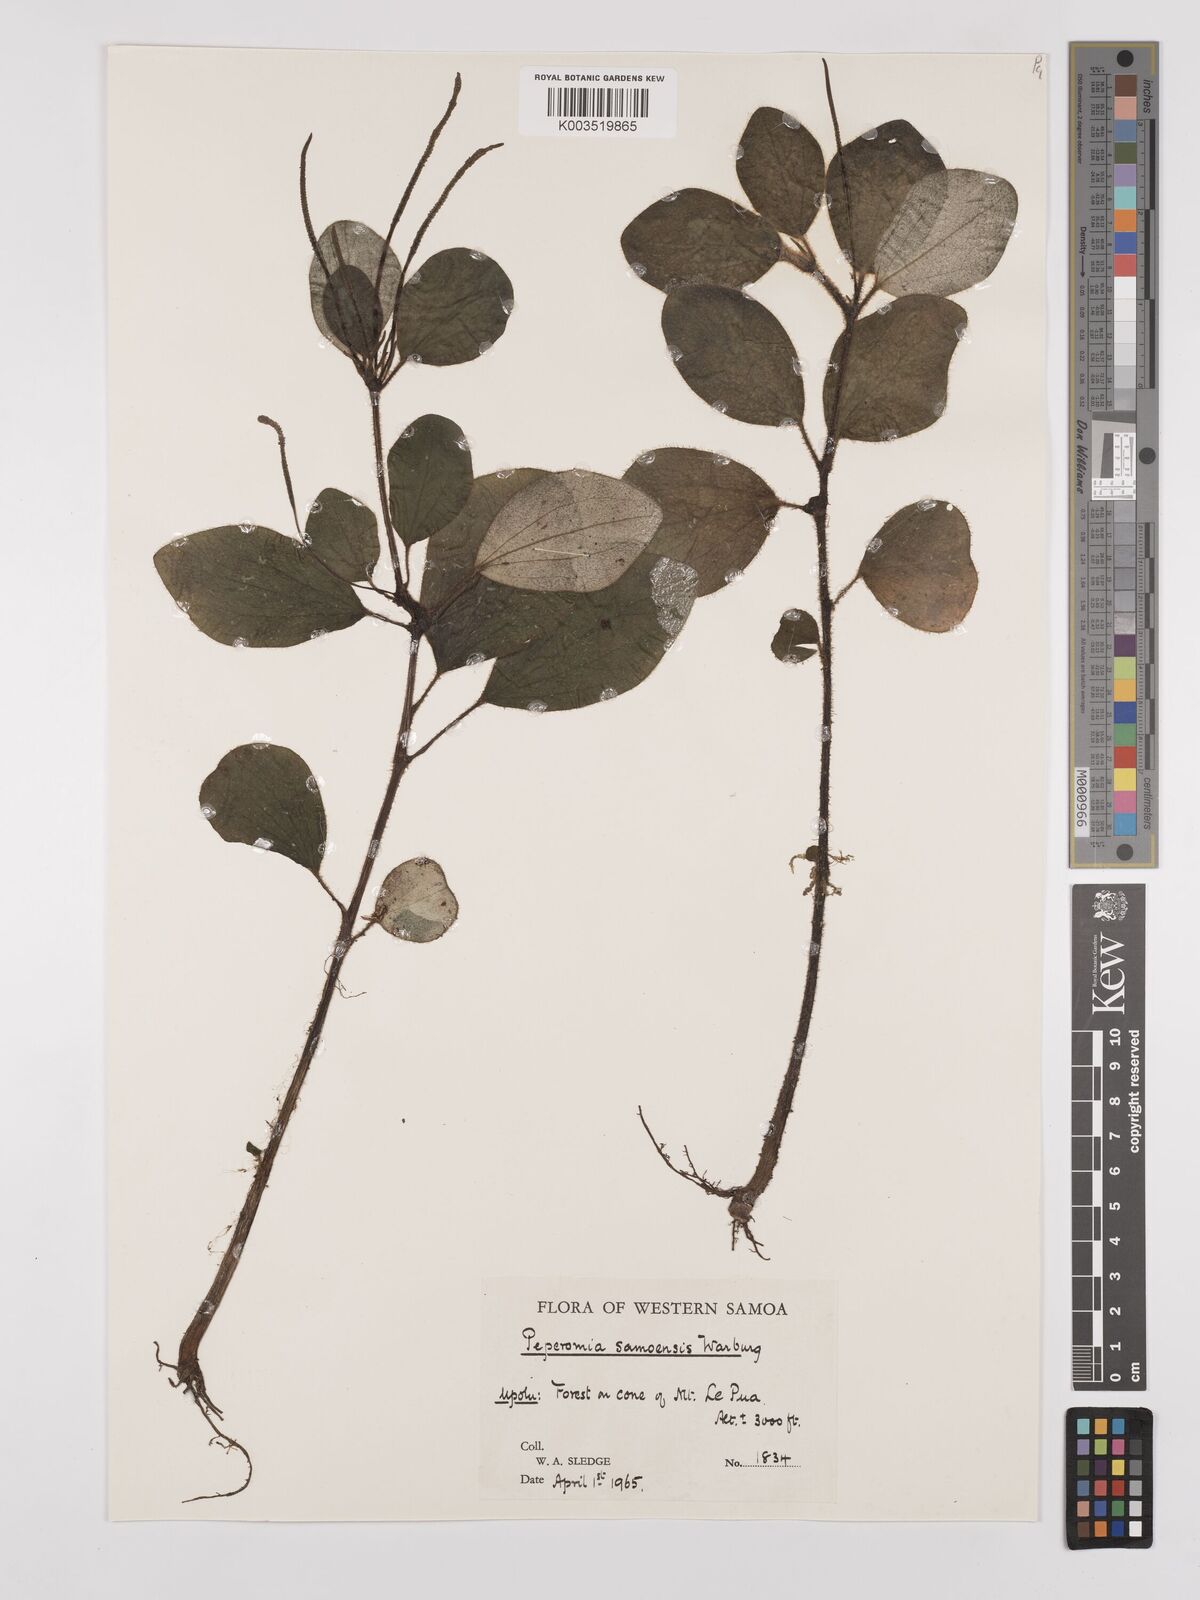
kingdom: Plantae
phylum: Tracheophyta
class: Magnoliopsida
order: Piperales
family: Piperaceae
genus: Peperomia
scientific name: Peperomia samoensis
